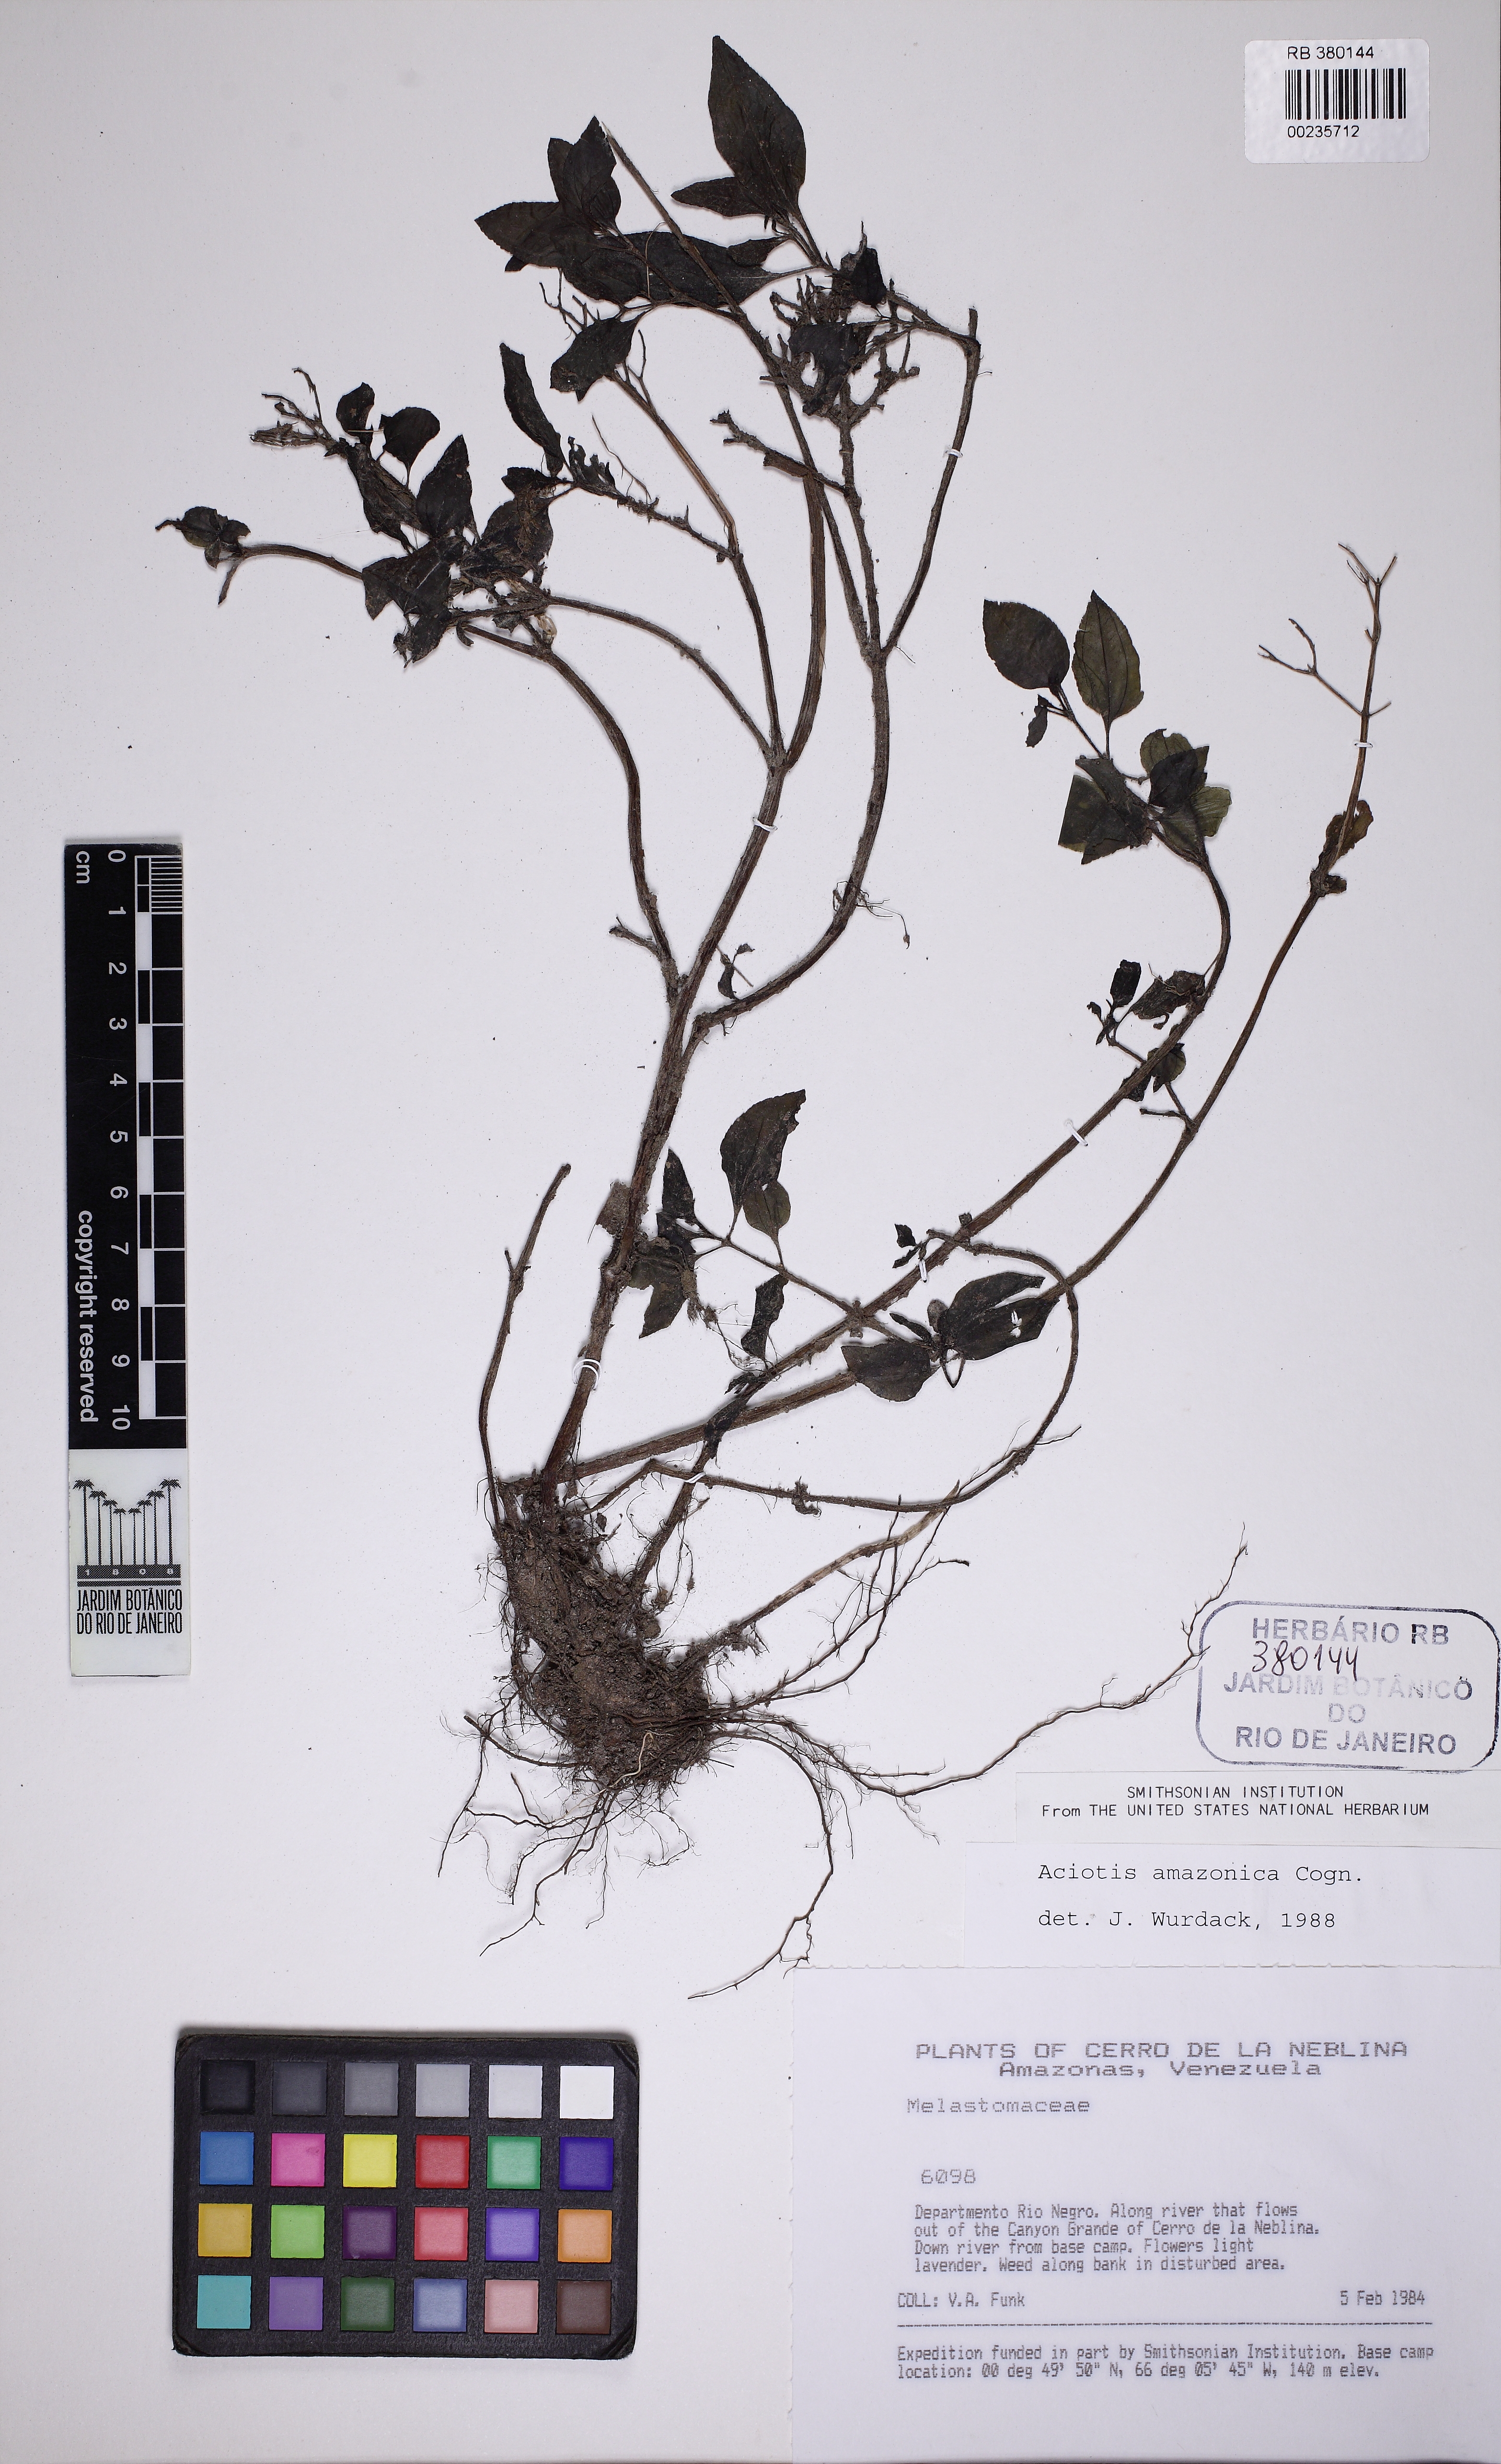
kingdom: Plantae
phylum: Tracheophyta
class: Magnoliopsida
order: Myrtales
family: Melastomataceae
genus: Aciotis
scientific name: Aciotis acuminifolia
